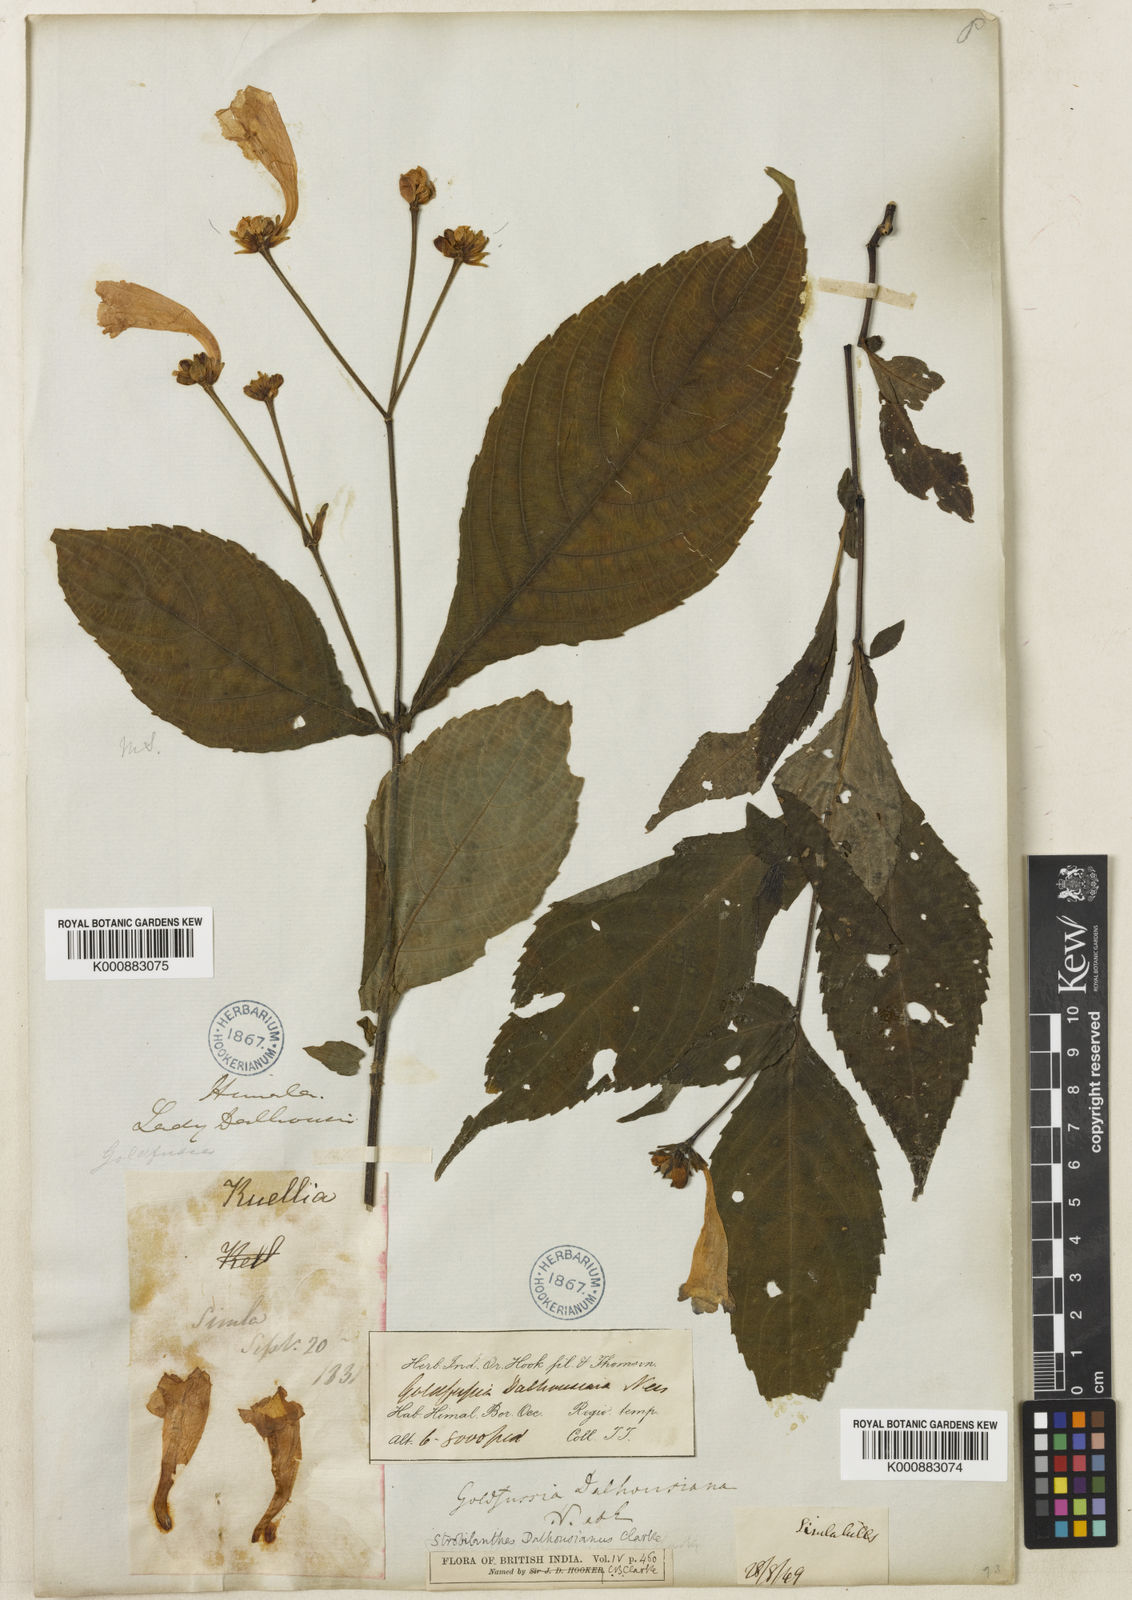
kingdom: Plantae
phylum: Tracheophyta
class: Magnoliopsida
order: Lamiales
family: Acanthaceae
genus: Strobilanthes
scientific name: Strobilanthes
